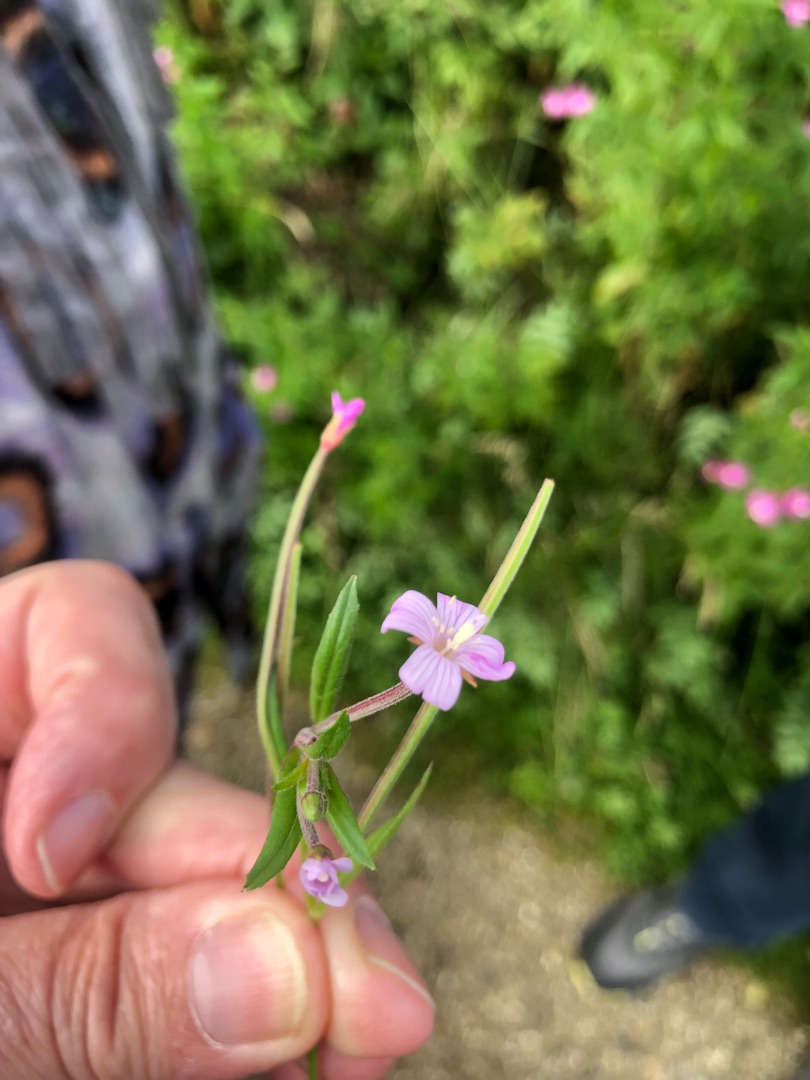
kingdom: Plantae
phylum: Tracheophyta
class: Magnoliopsida
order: Myrtales
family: Onagraceae
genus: Epilobium
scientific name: Epilobium
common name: Dueurtslægten
